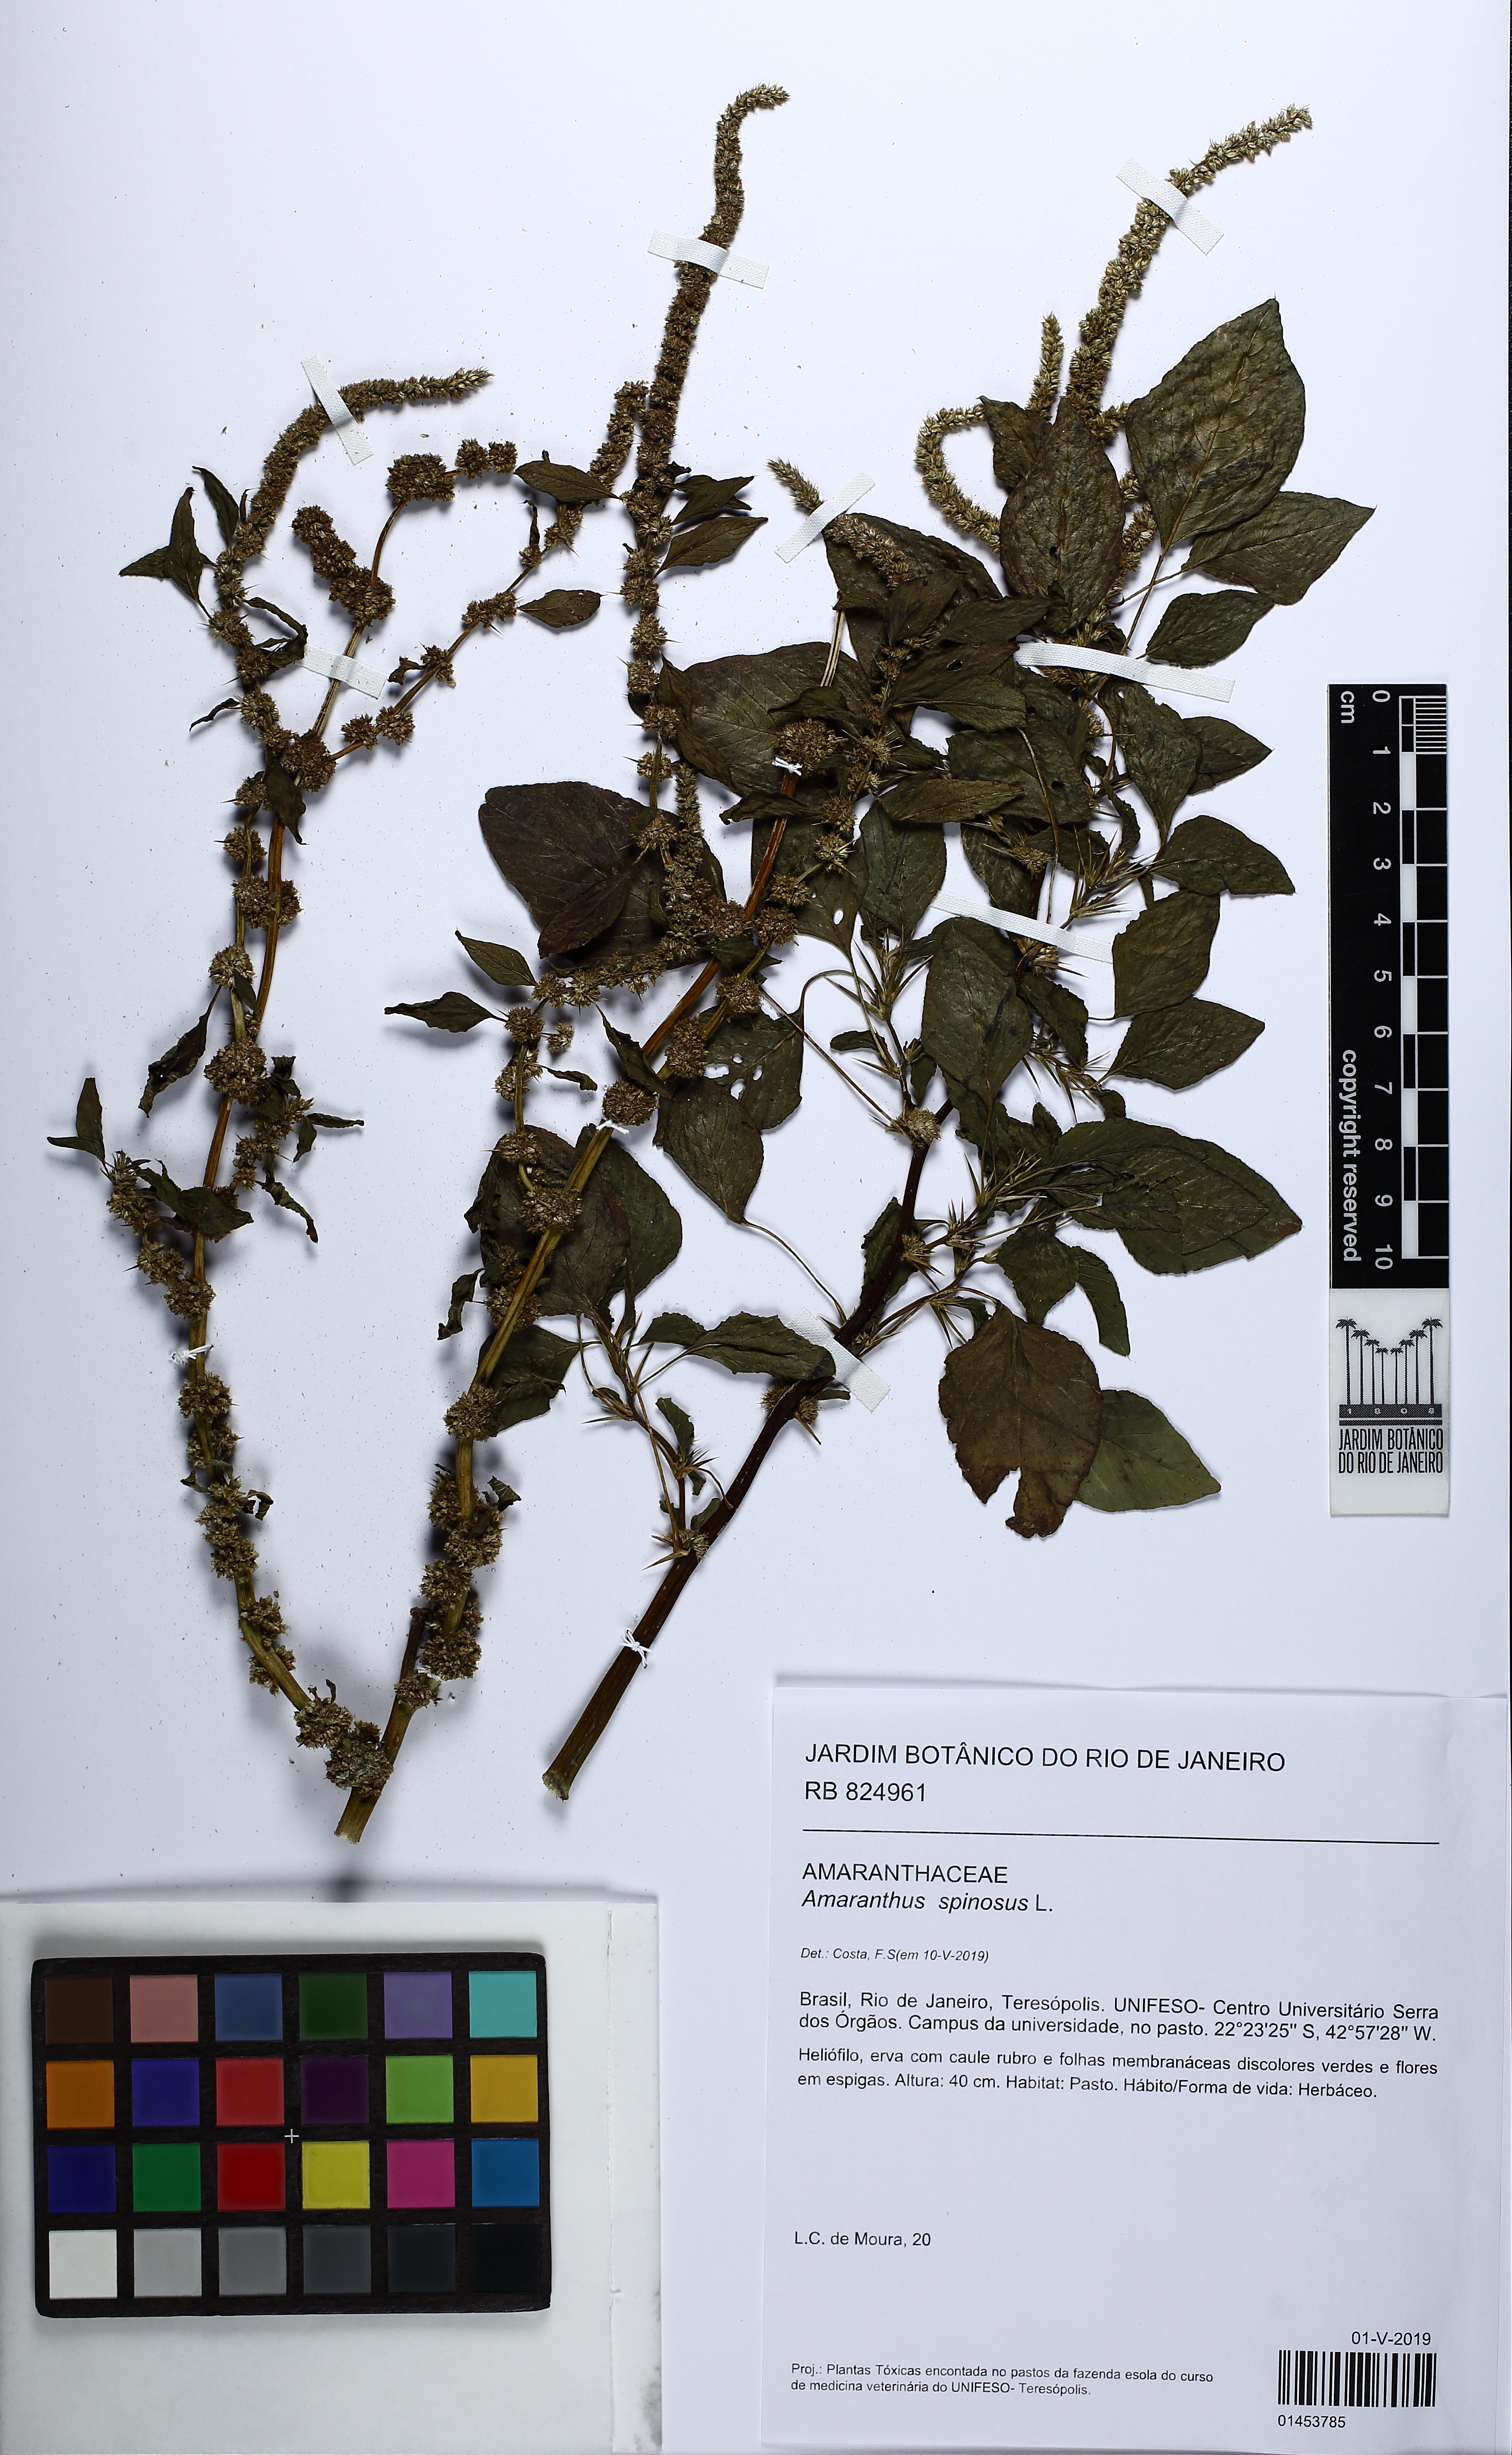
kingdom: Plantae
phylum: Tracheophyta
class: Magnoliopsida
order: Caryophyllales
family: Amaranthaceae
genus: Amaranthus
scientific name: Amaranthus spinosus
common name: Spiny amaranth
